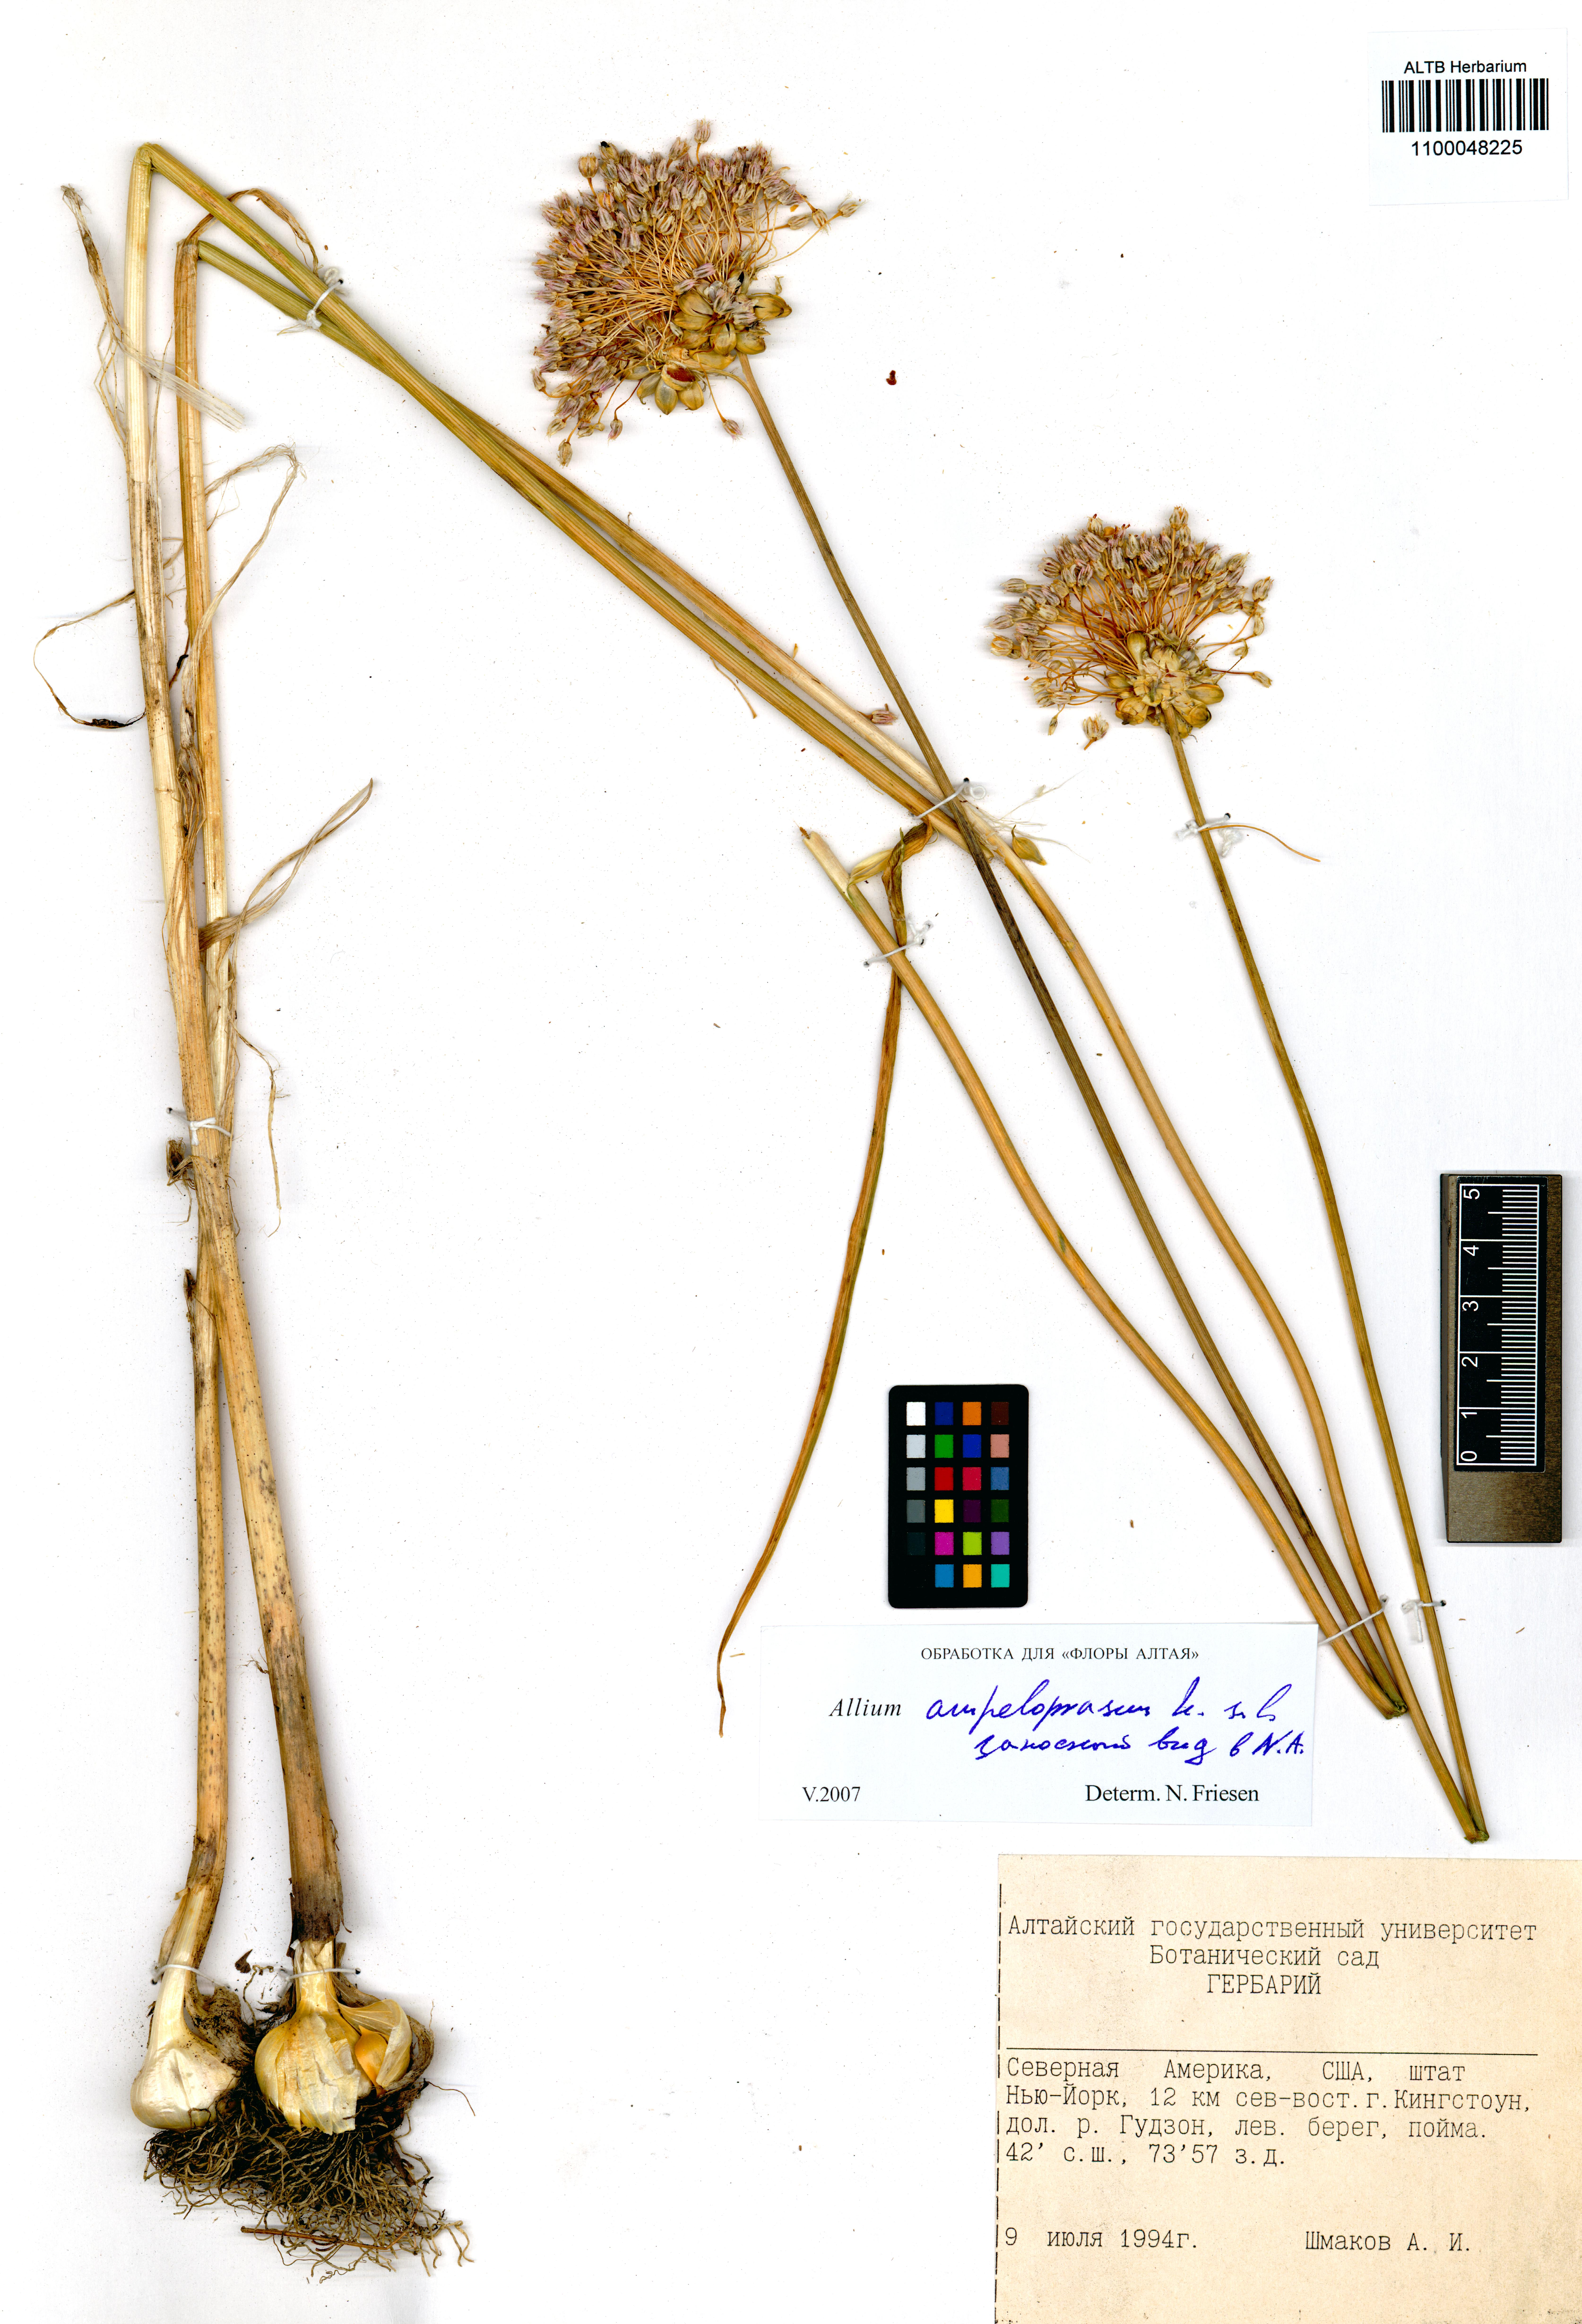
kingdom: Plantae
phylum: Tracheophyta
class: Liliopsida
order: Asparagales
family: Amaryllidaceae
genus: Allium
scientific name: Allium ampeloprasum
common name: Wild leek
